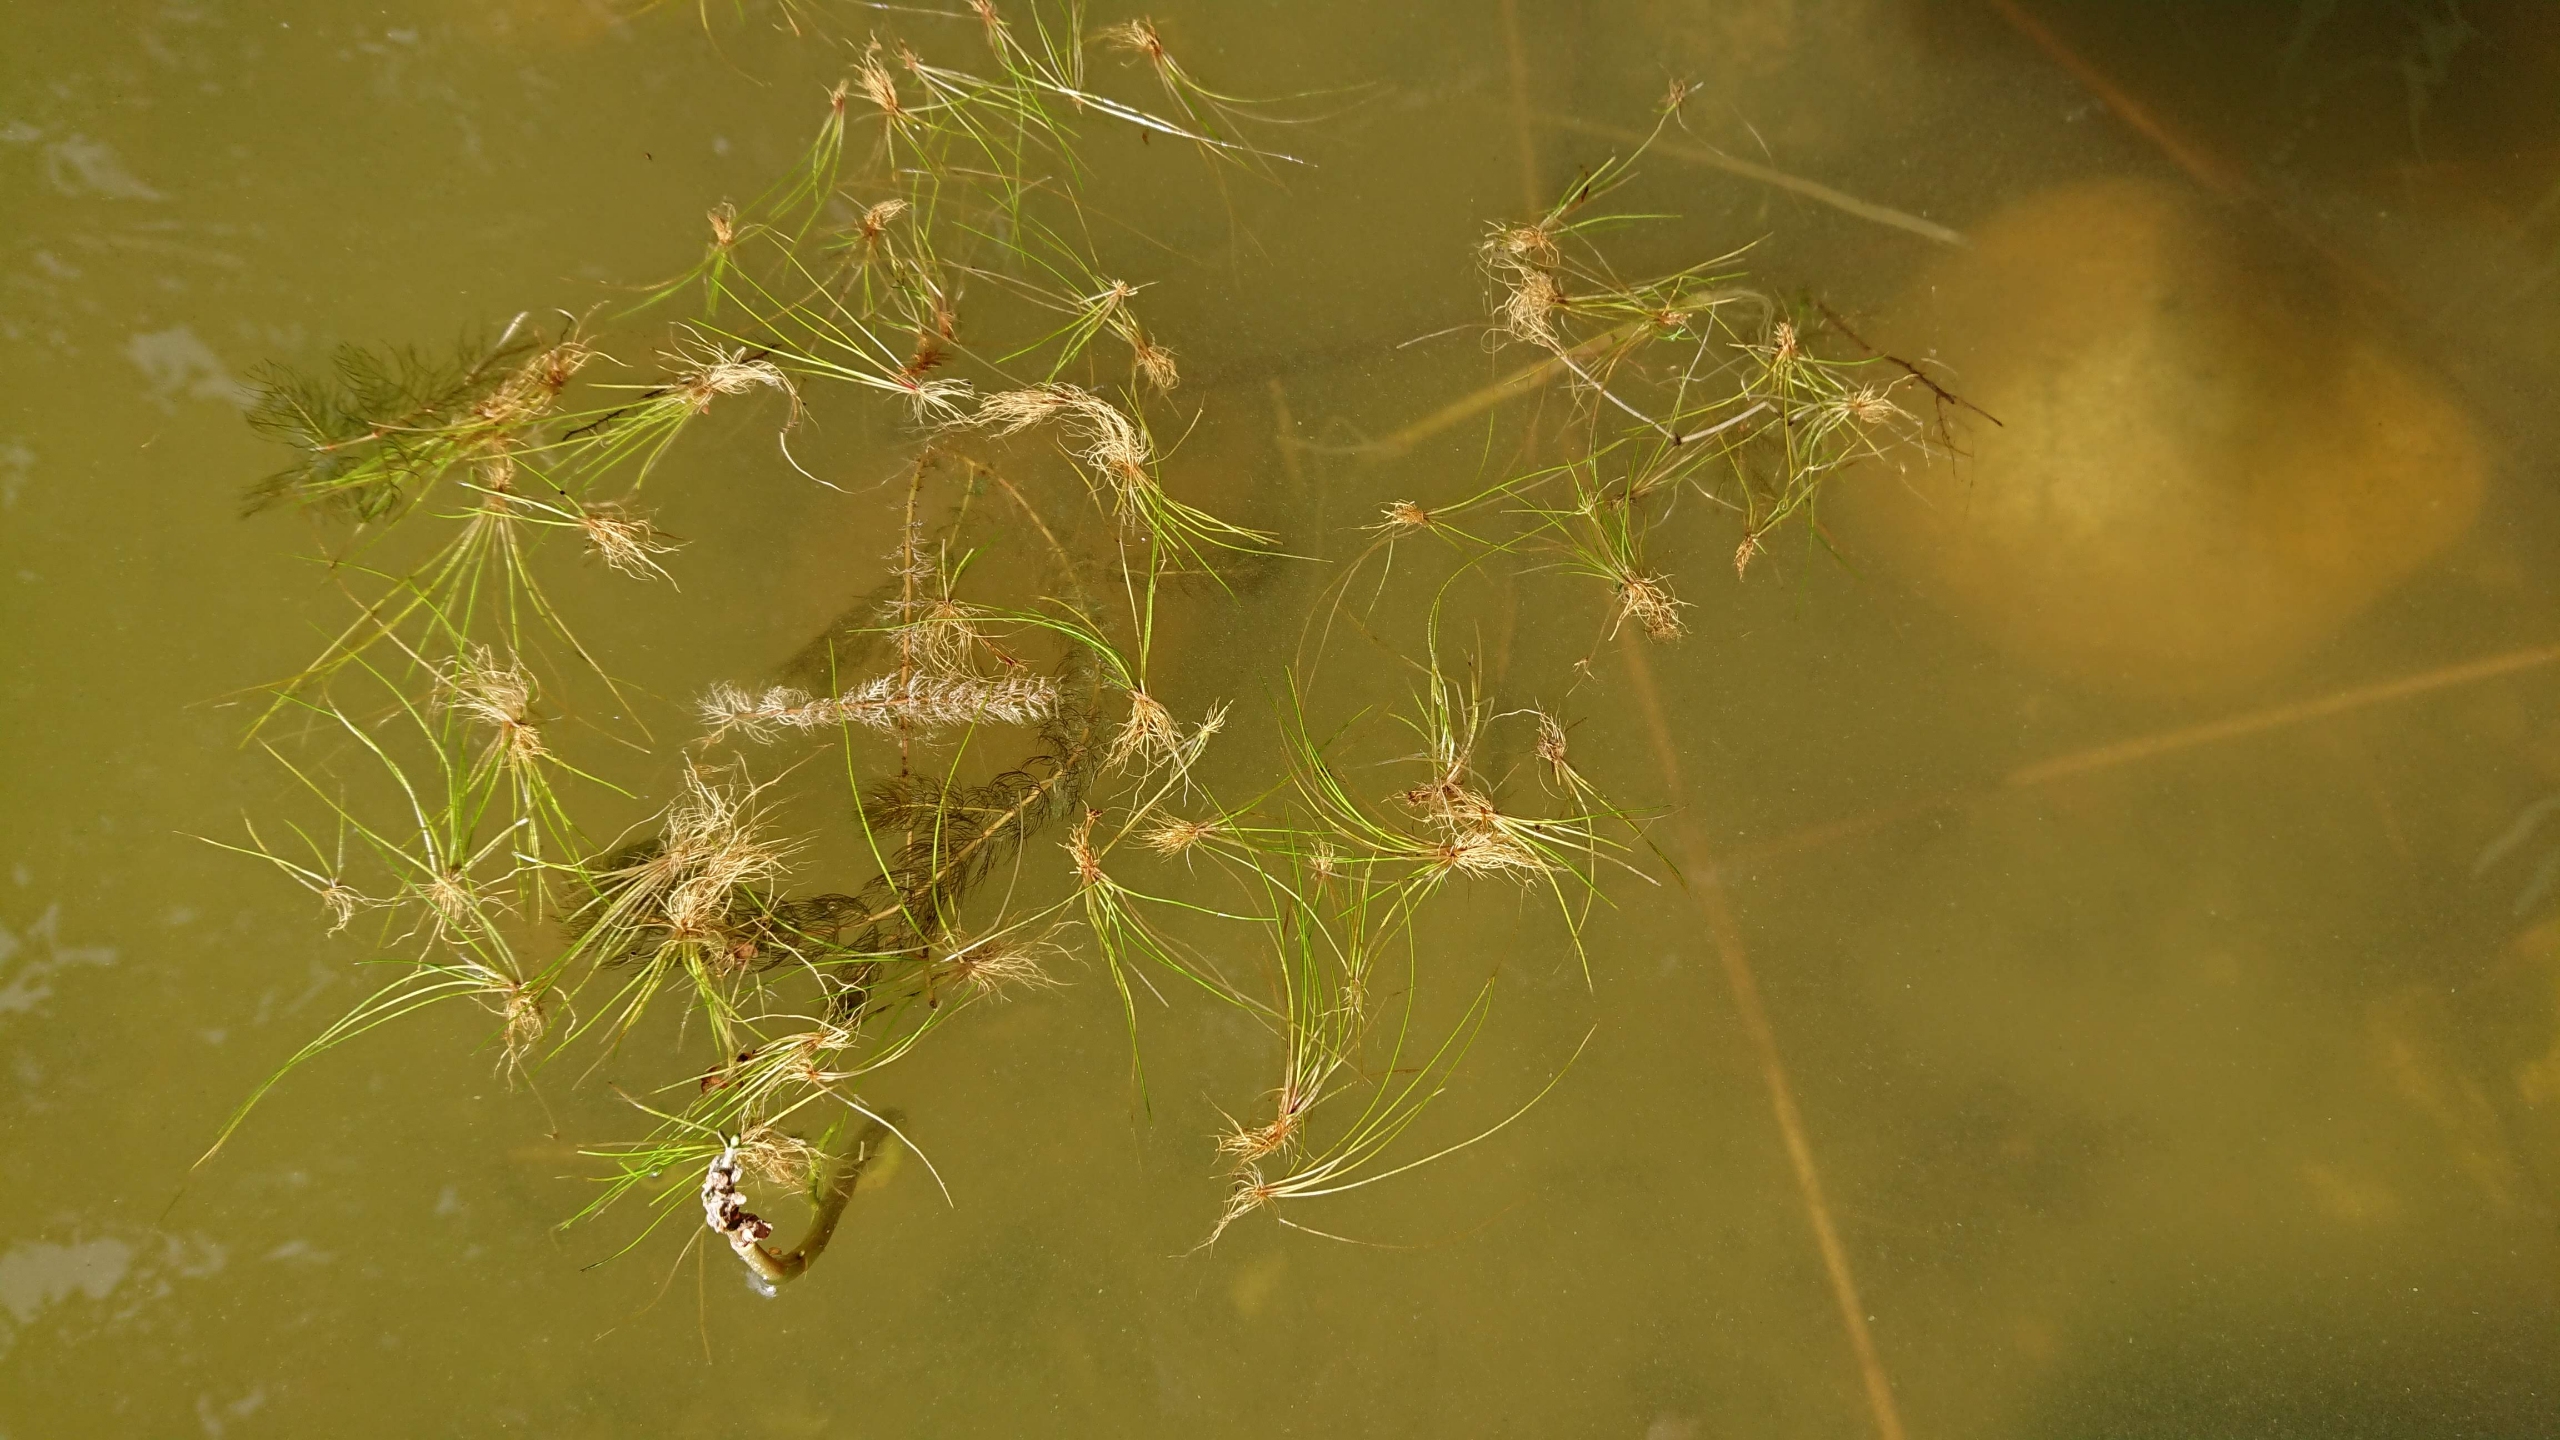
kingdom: Plantae
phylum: Tracheophyta
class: Magnoliopsida
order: Saxifragales
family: Haloragaceae
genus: Myriophyllum
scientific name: Myriophyllum alterniflorum
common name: Hår-tusindblad
